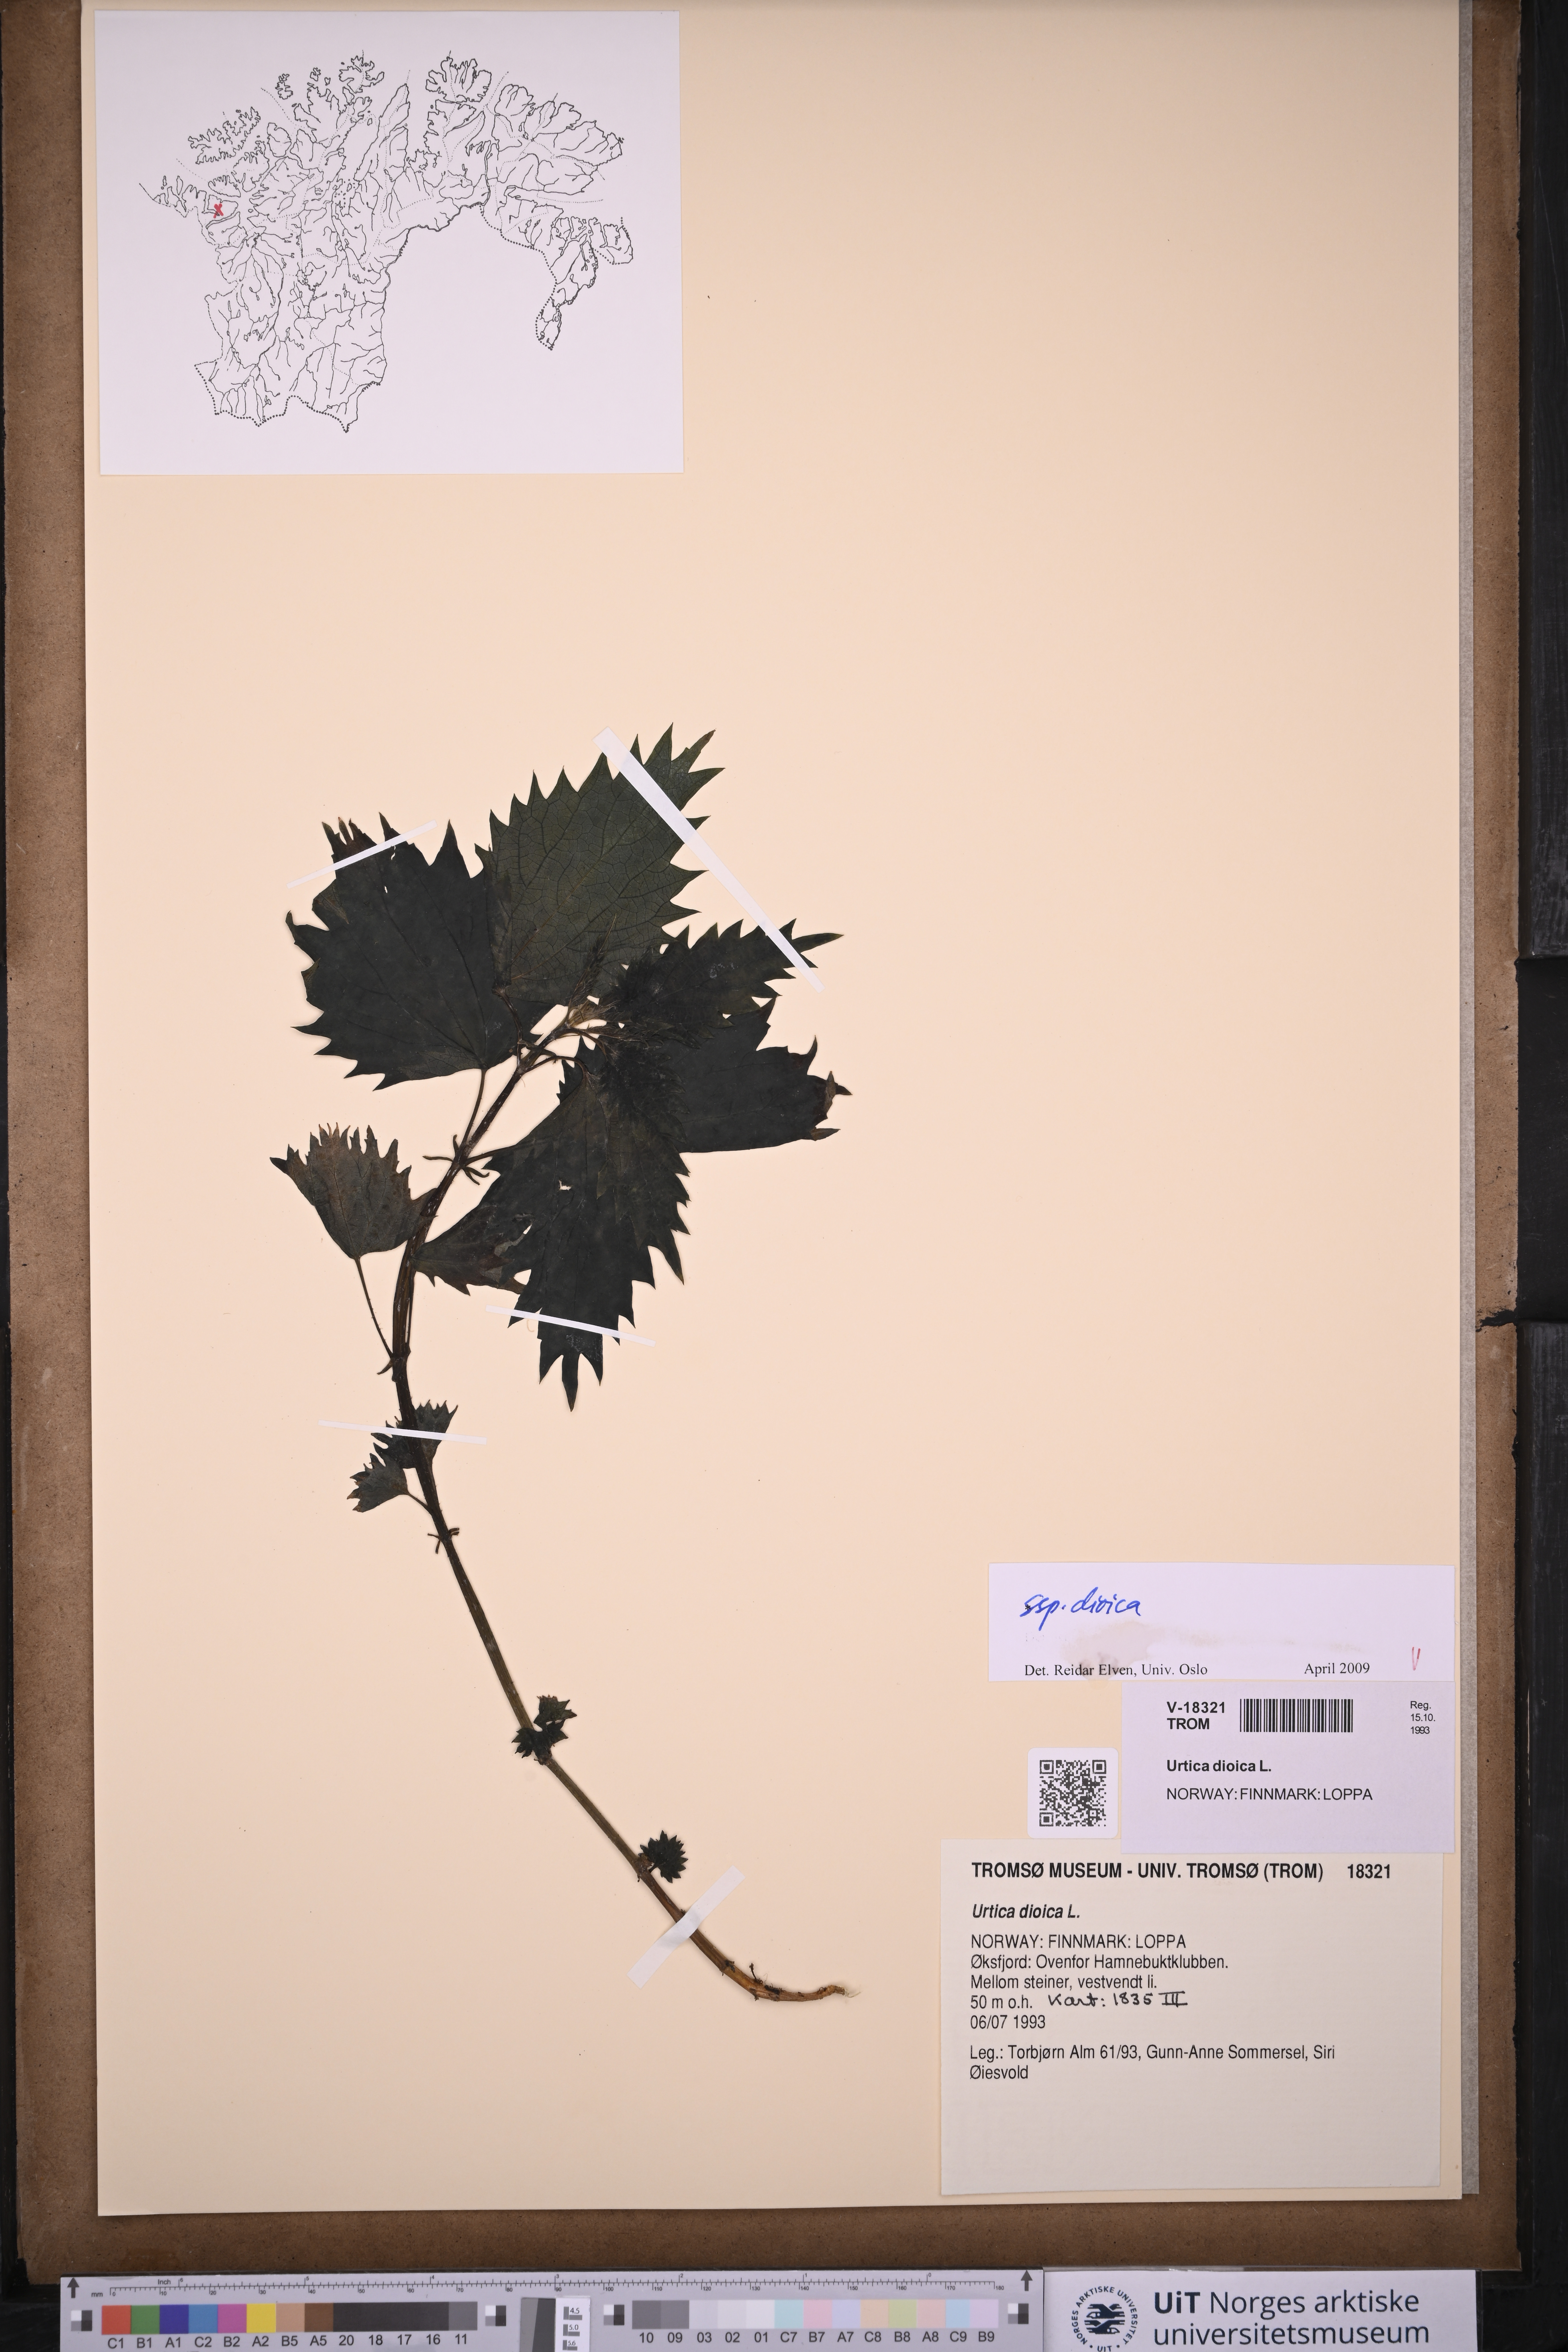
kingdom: Plantae
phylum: Tracheophyta
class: Magnoliopsida
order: Rosales
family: Urticaceae
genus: Urtica
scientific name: Urtica dioica
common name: Common nettle
